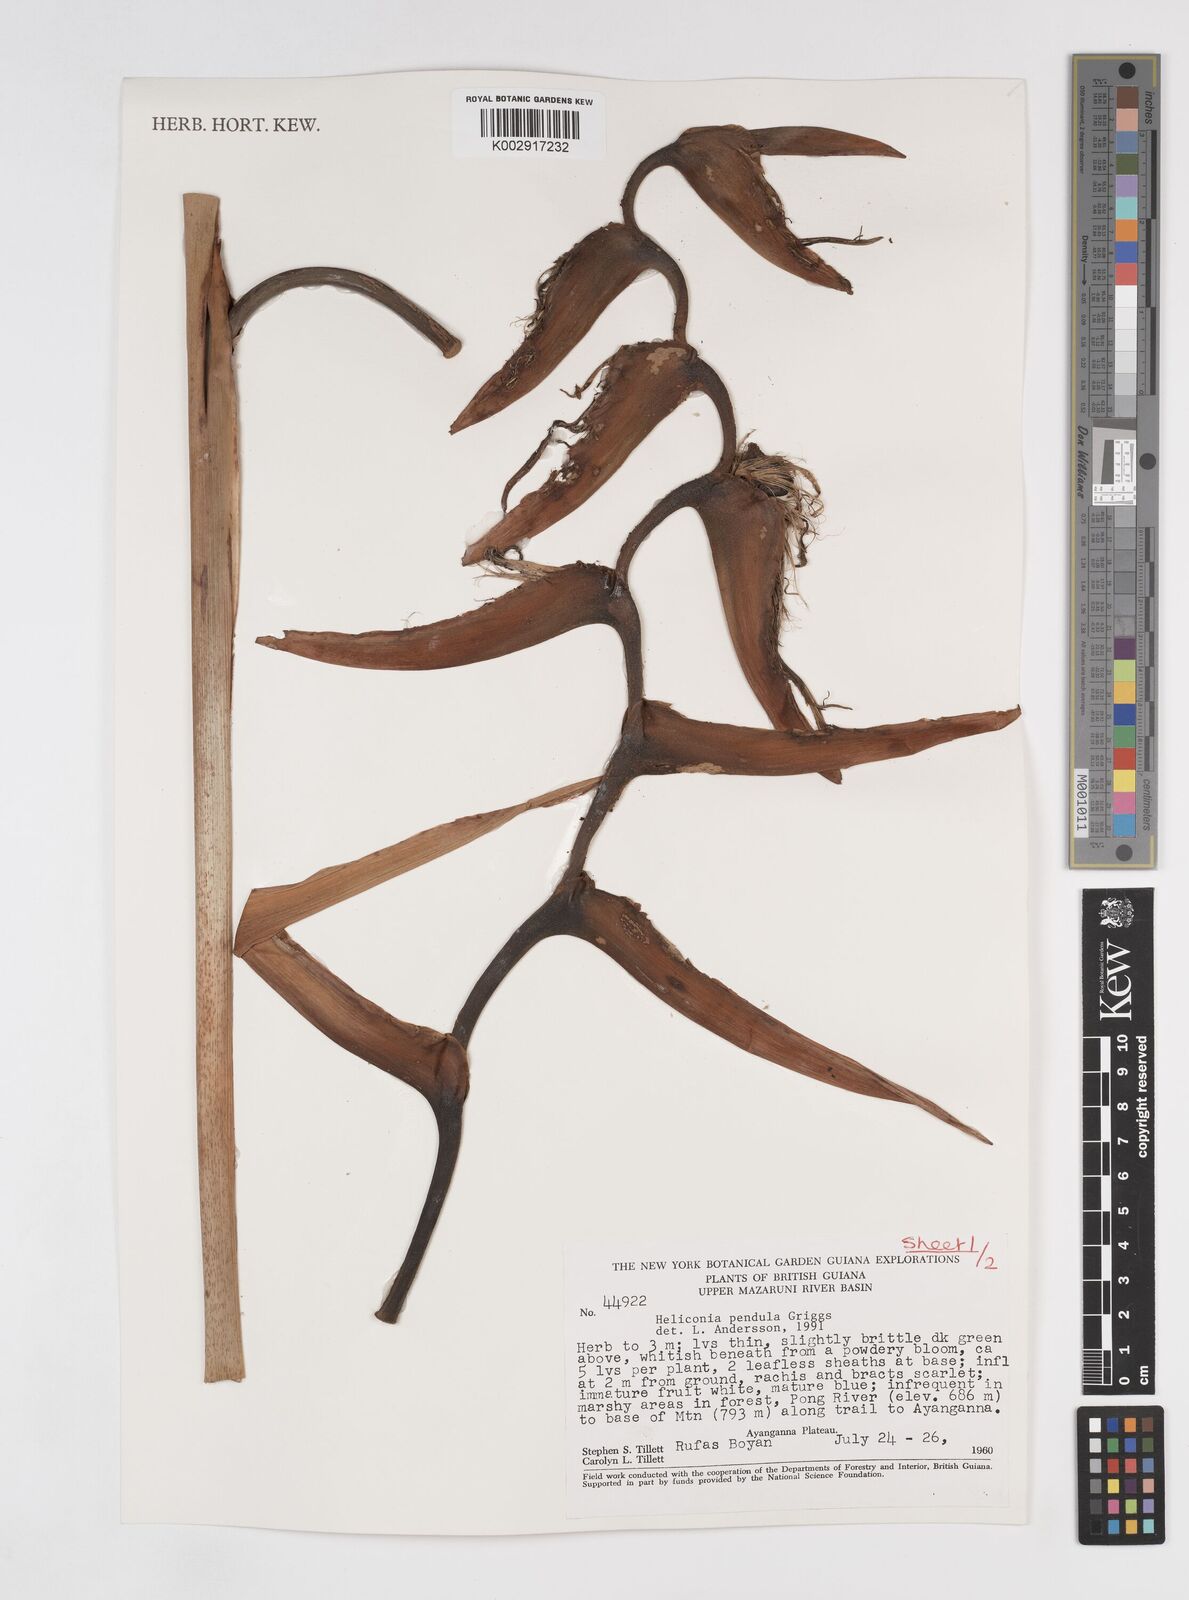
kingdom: Plantae
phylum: Tracheophyta
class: Liliopsida
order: Zingiberales
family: Heliconiaceae
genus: Heliconia
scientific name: Heliconia pendula
